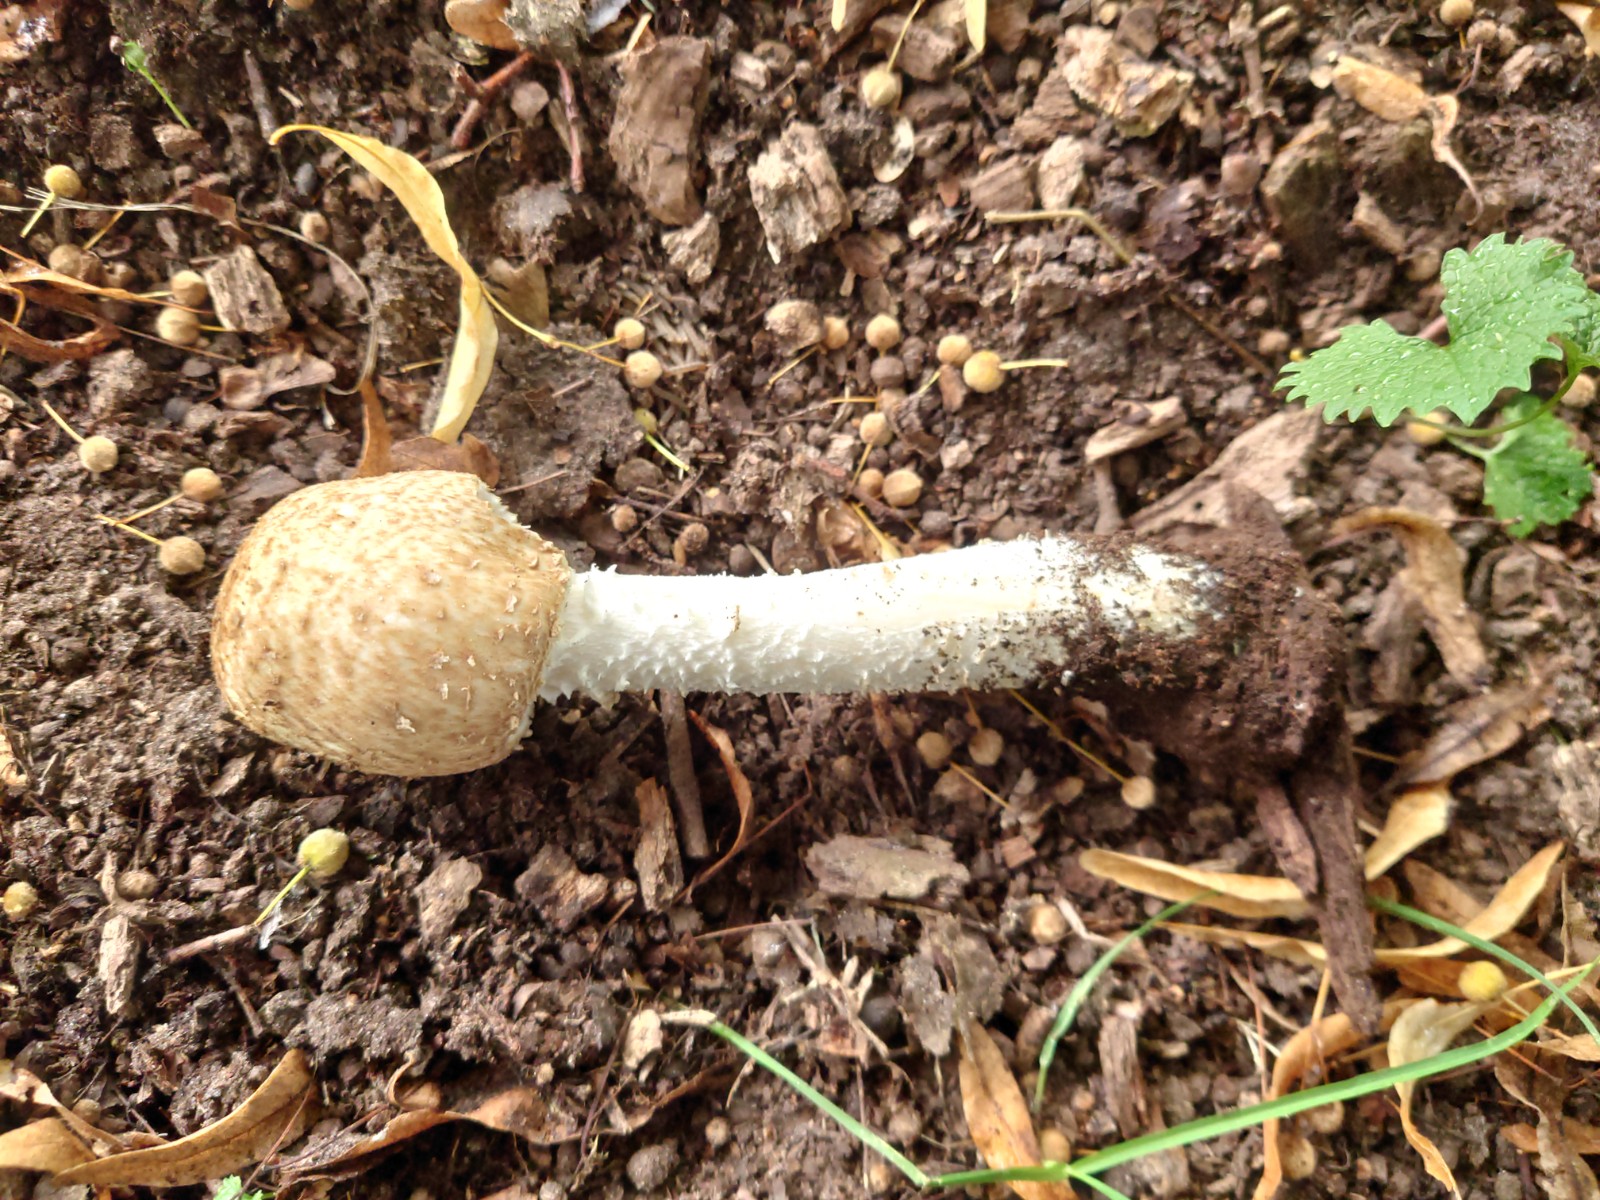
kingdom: Fungi
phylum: Basidiomycota
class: Agaricomycetes
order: Agaricales
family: Agaricaceae
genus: Agaricus
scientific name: Agaricus augustus
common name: prægtig champignon
